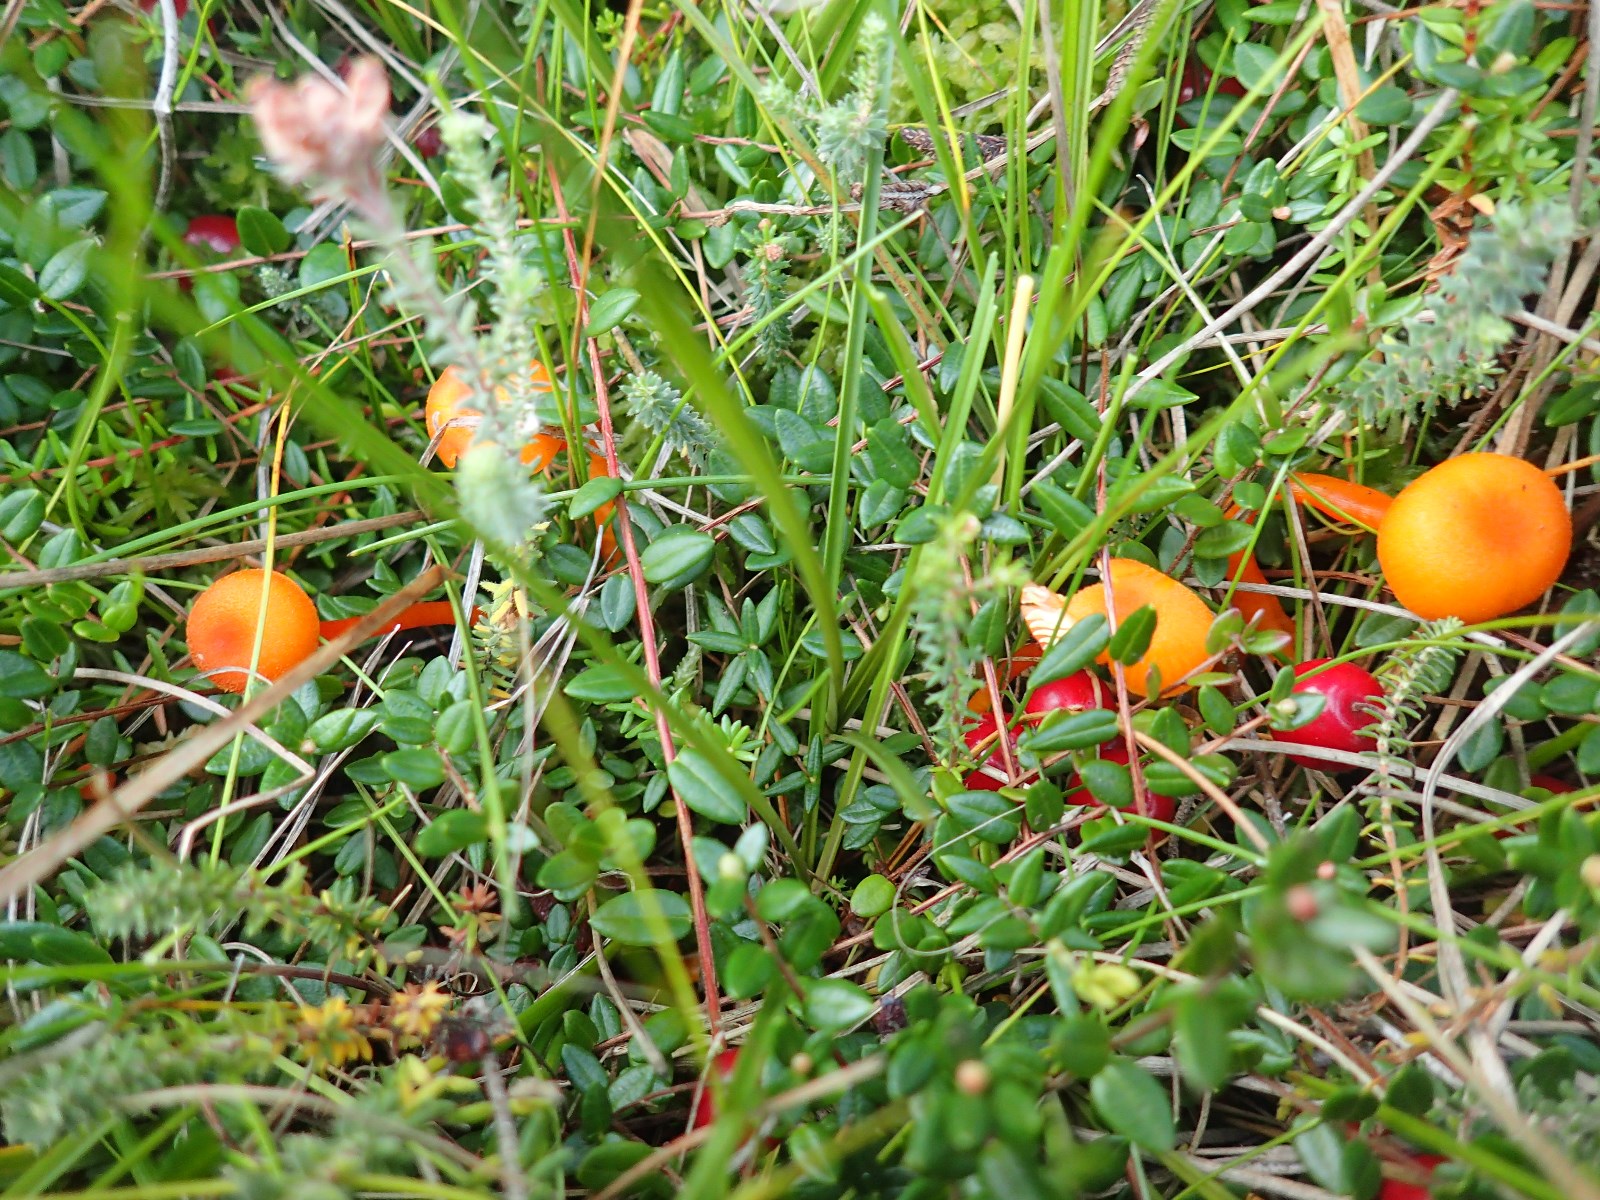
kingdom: Fungi
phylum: Basidiomycota
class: Agaricomycetes
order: Agaricales
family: Hygrophoraceae
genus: Hygrocybe
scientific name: Hygrocybe substrangulata
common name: kær-vokshat
